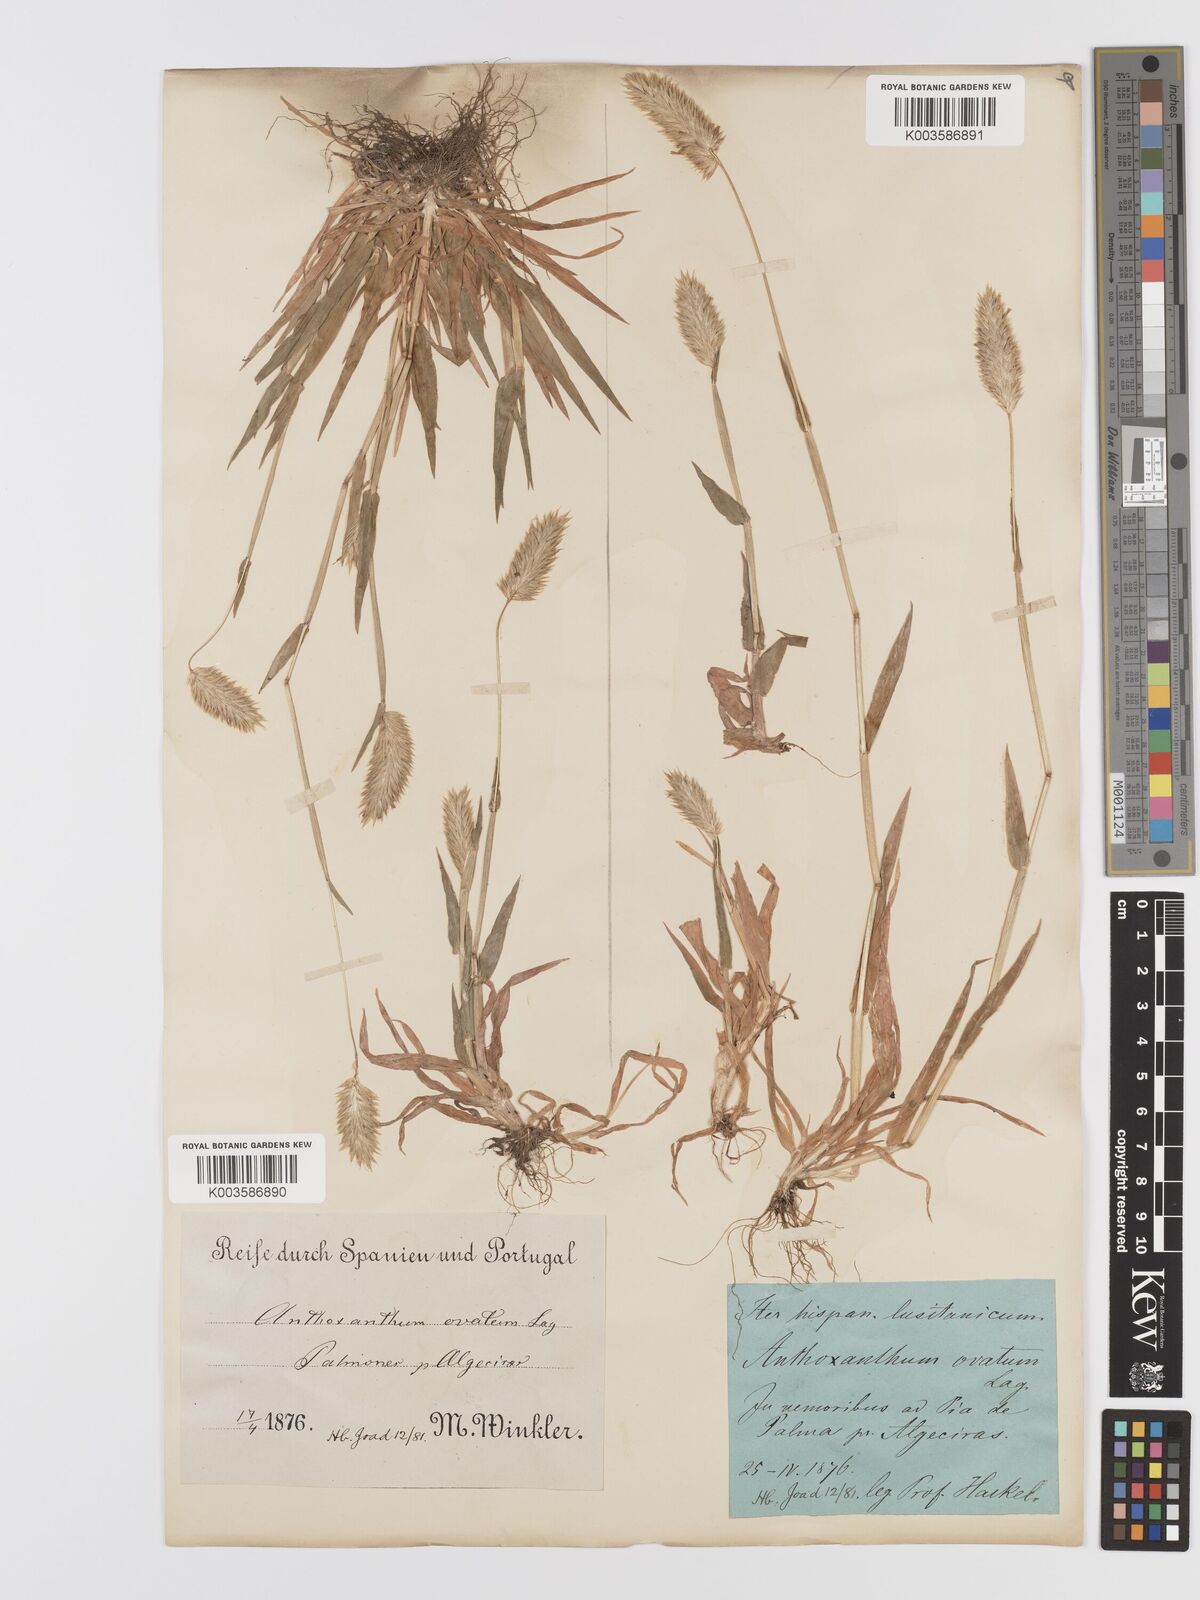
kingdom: Plantae
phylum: Tracheophyta
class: Liliopsida
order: Poales
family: Poaceae
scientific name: Poaceae
